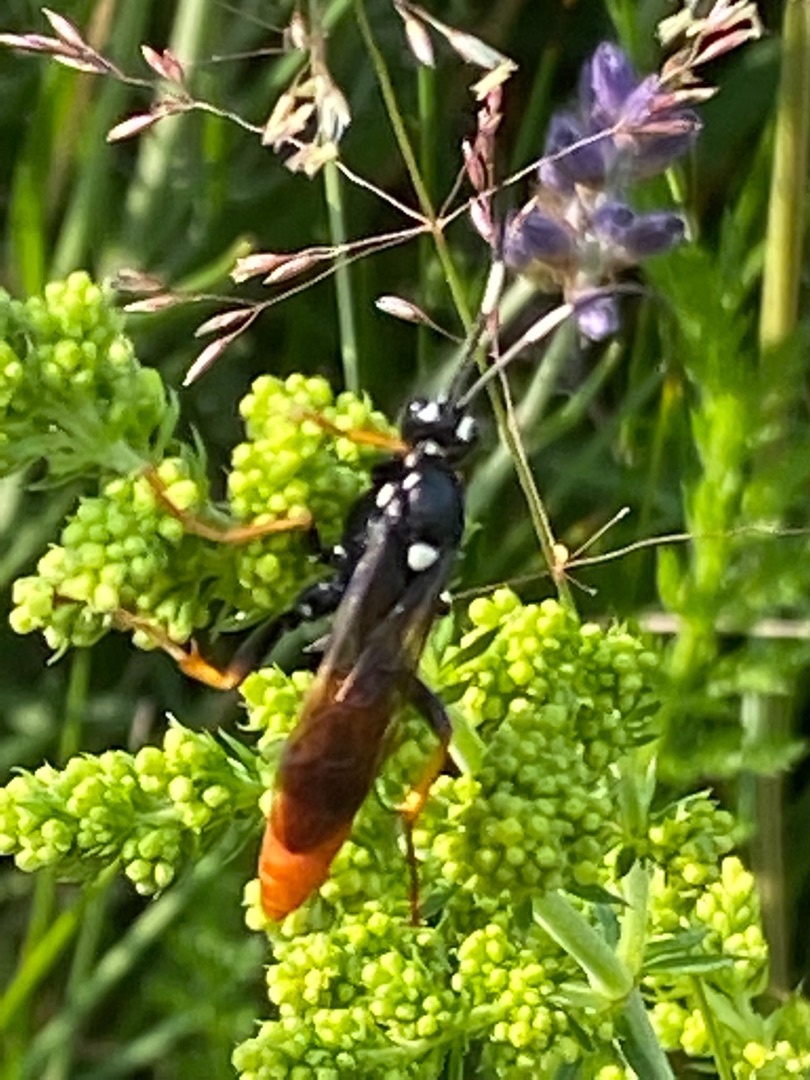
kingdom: Animalia
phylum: Arthropoda
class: Insecta
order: Hymenoptera
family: Ichneumonidae
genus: Amblyjoppa
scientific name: Amblyjoppa fuscipennis
